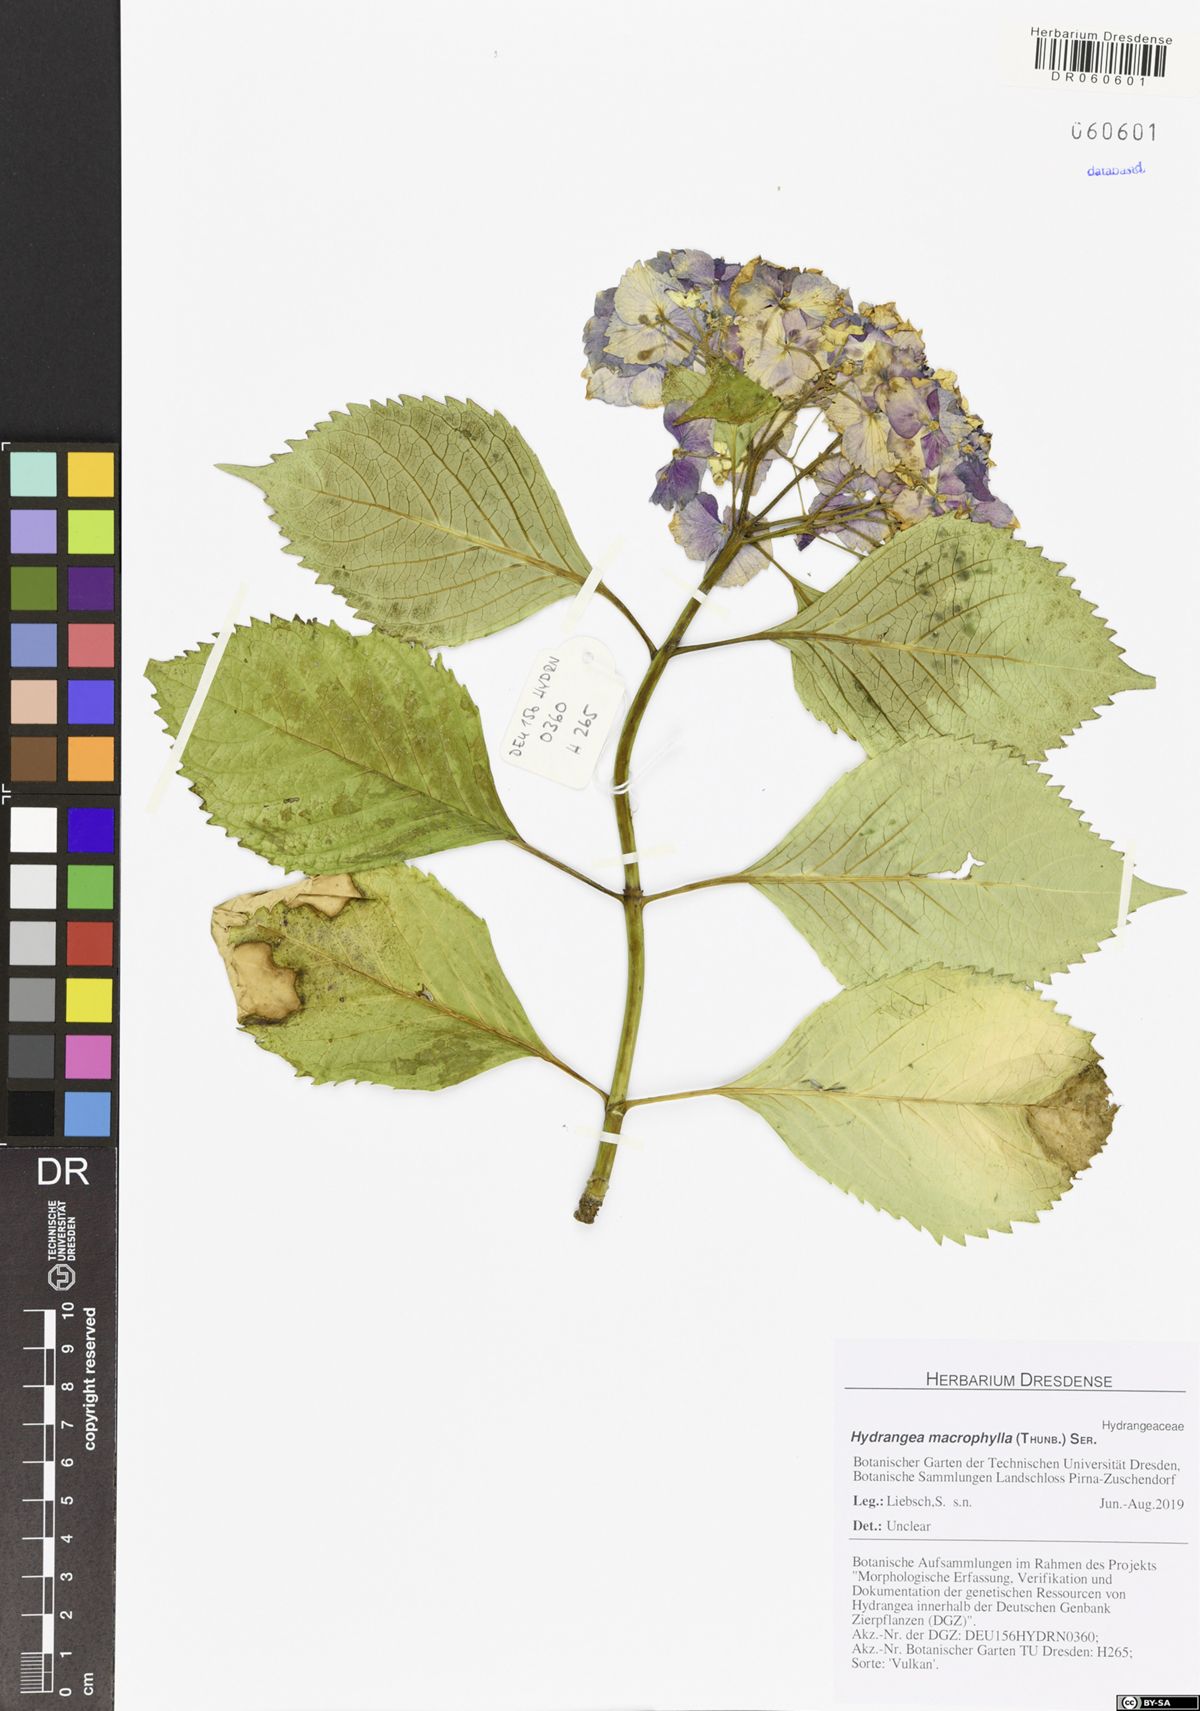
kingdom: Plantae
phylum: Tracheophyta
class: Magnoliopsida
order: Cornales
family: Hydrangeaceae
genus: Hydrangea
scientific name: Hydrangea macrophylla
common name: Hydrangea
